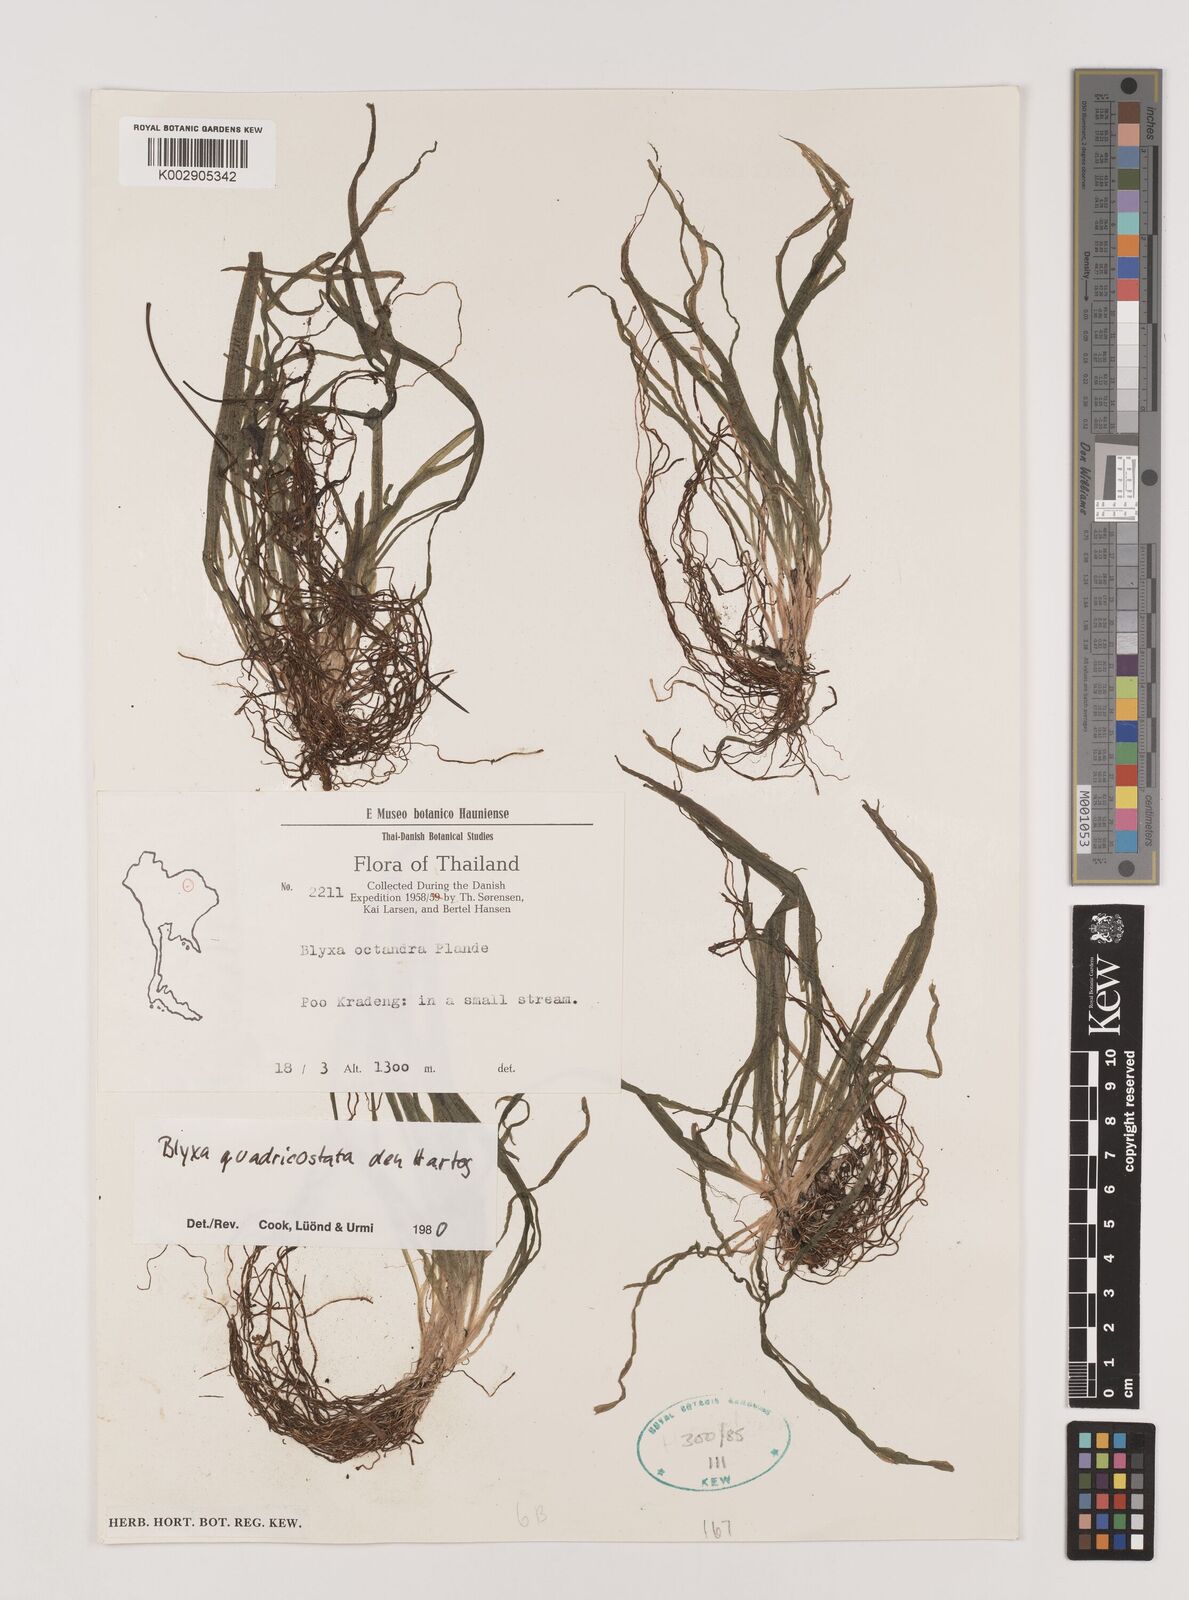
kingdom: Plantae
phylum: Tracheophyta
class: Liliopsida
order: Alismatales
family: Hydrocharitaceae
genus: Blyxa
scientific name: Blyxa quadricostata
